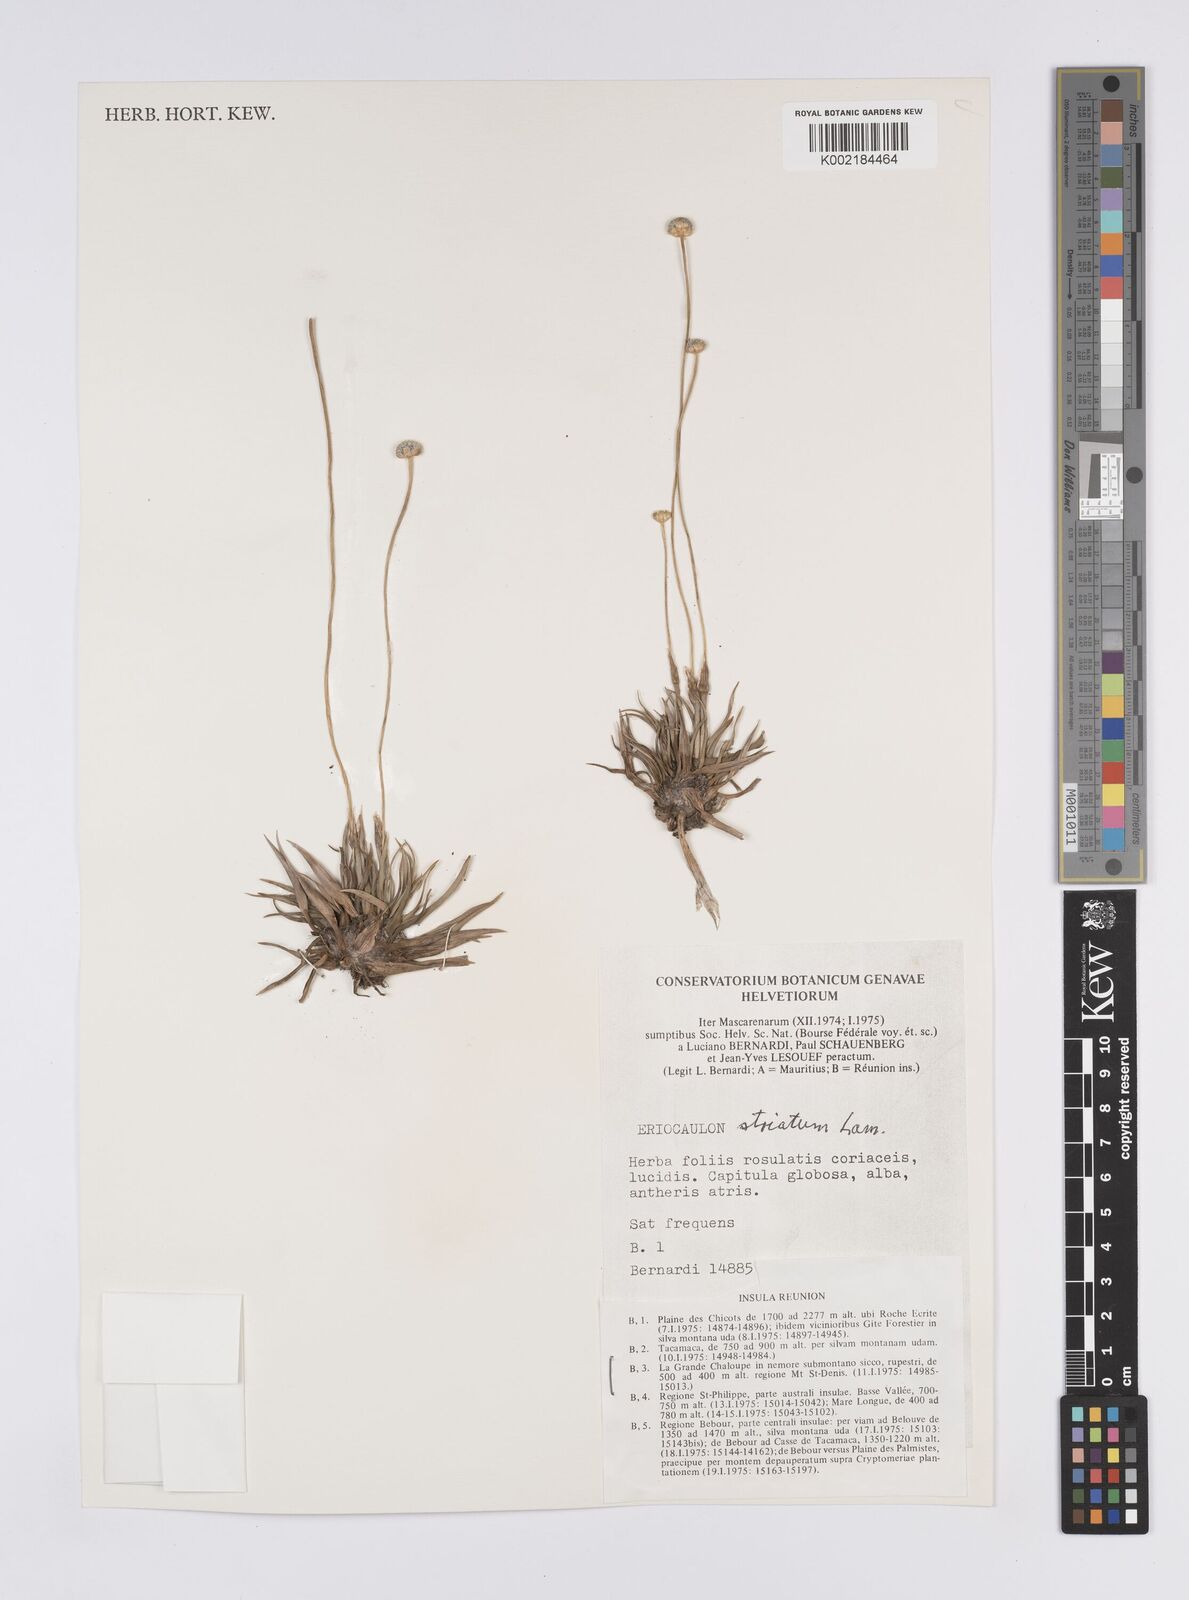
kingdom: Plantae
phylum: Tracheophyta
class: Liliopsida
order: Poales
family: Eriocaulaceae
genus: Eriocaulon
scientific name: Eriocaulon striatum
